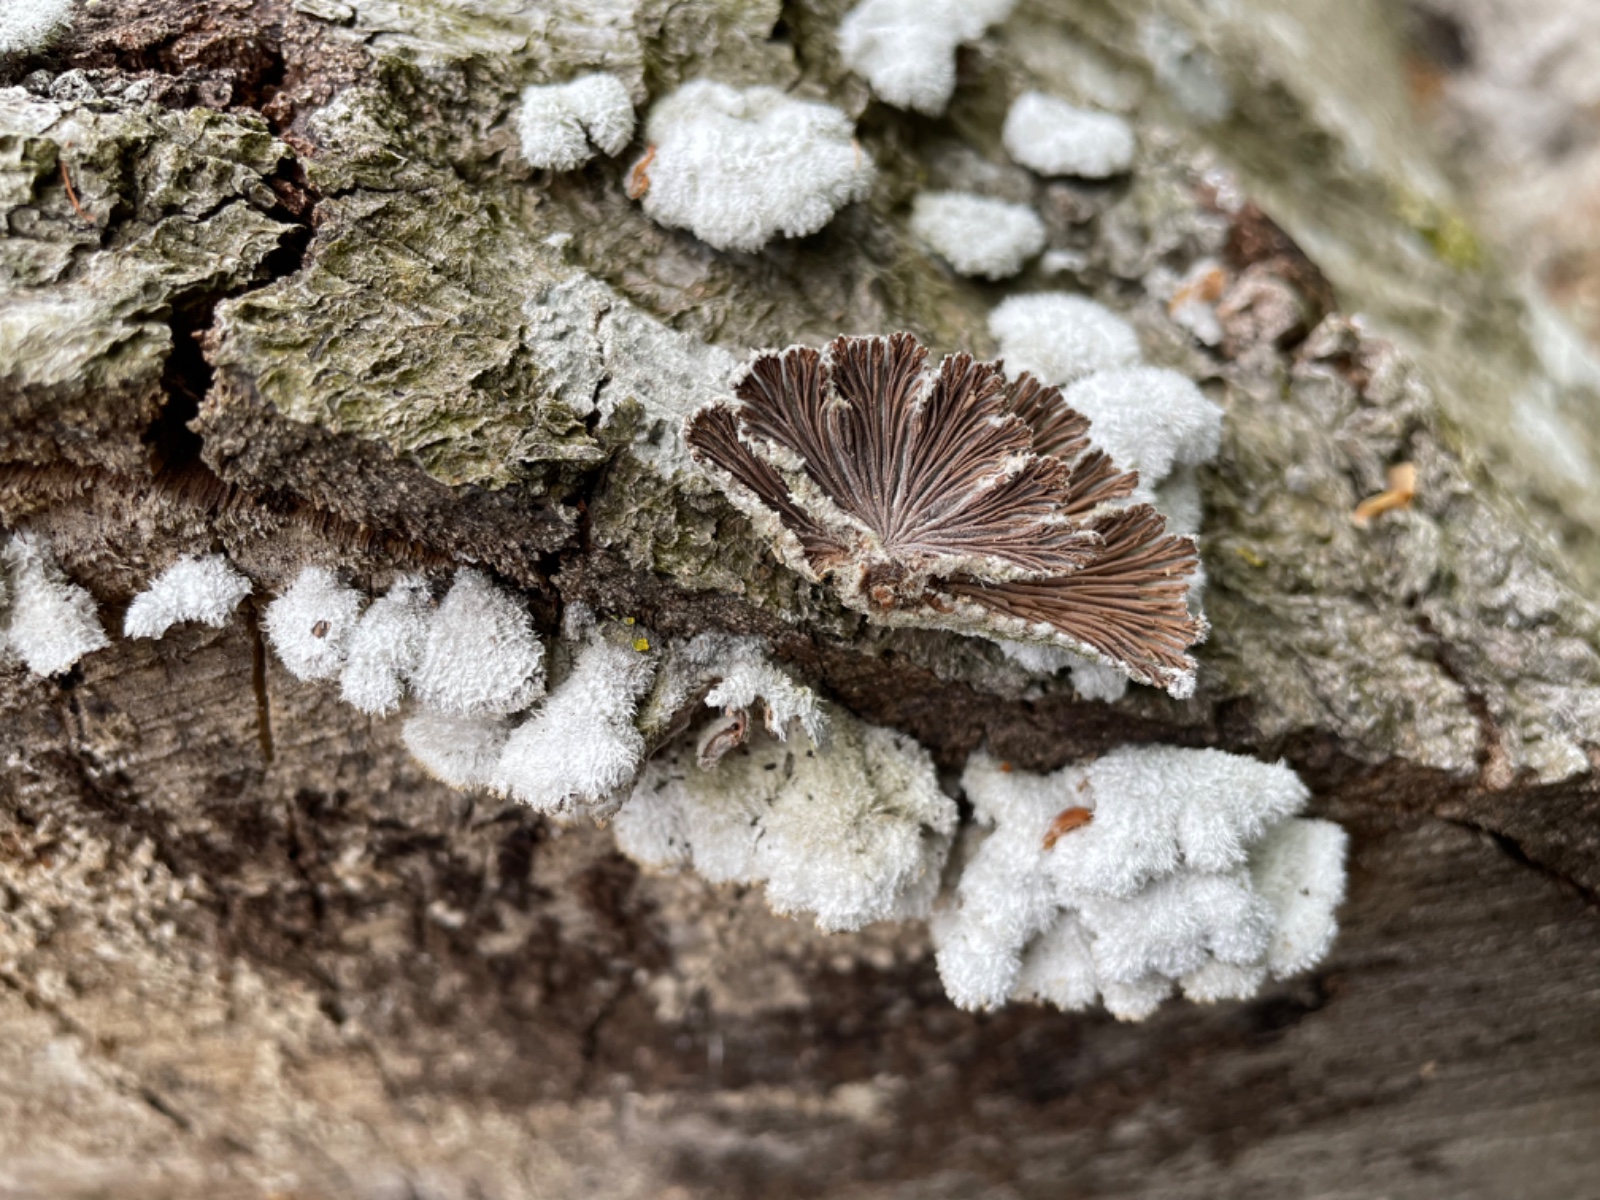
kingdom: Fungi
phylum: Basidiomycota
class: Agaricomycetes
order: Agaricales
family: Schizophyllaceae
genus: Schizophyllum
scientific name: Schizophyllum
